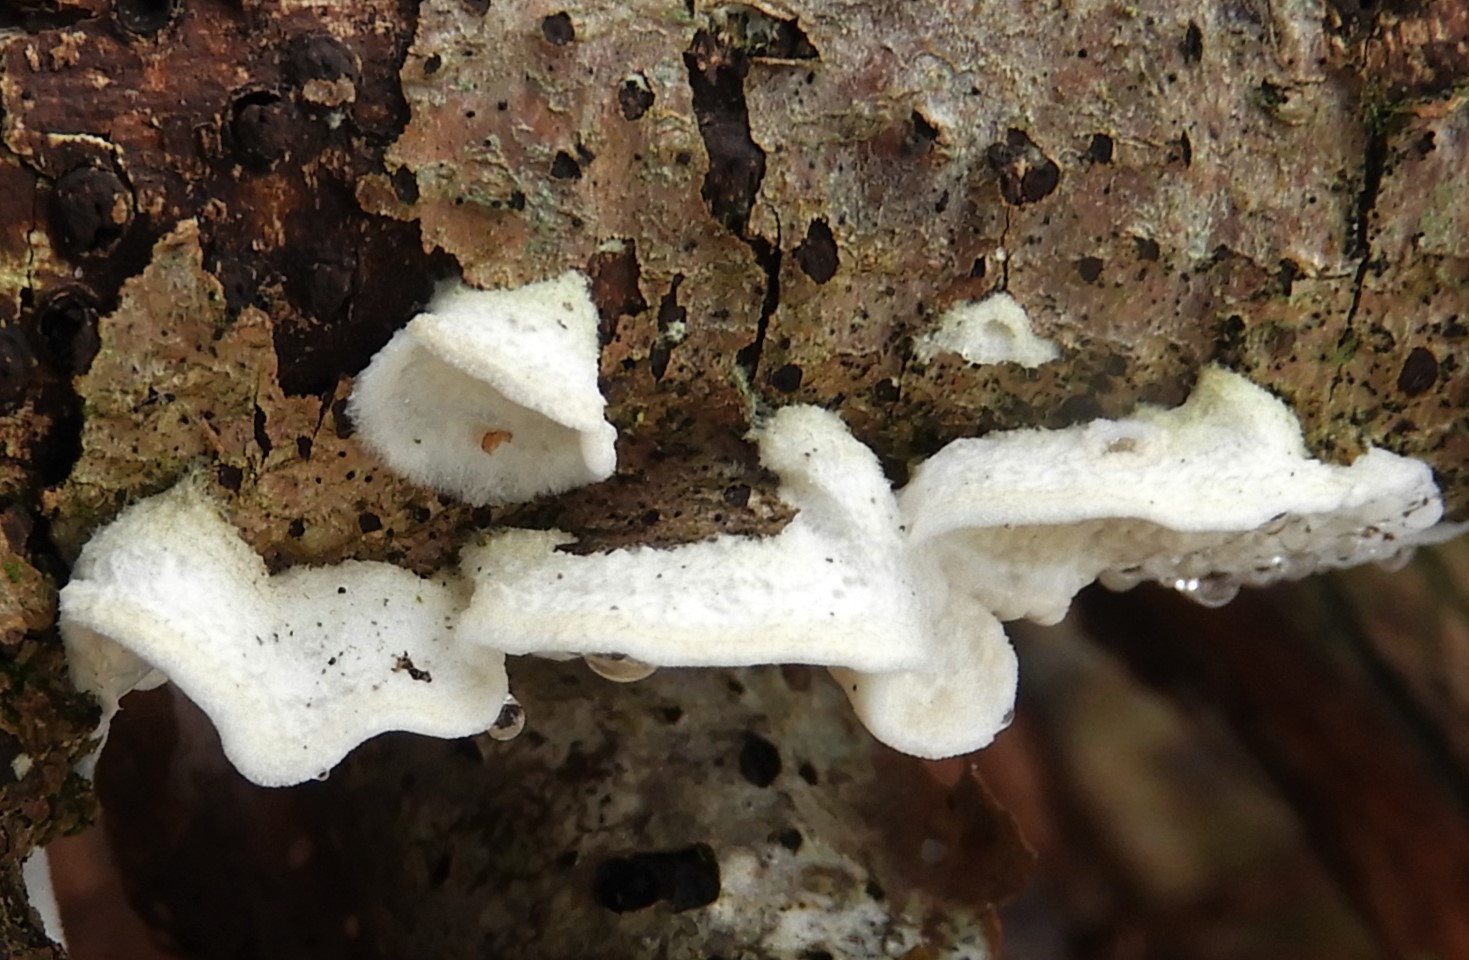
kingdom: Fungi
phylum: Basidiomycota
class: Agaricomycetes
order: Polyporales
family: Irpicaceae
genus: Byssomerulius
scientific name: Byssomerulius corium
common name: læder-åresvamp
